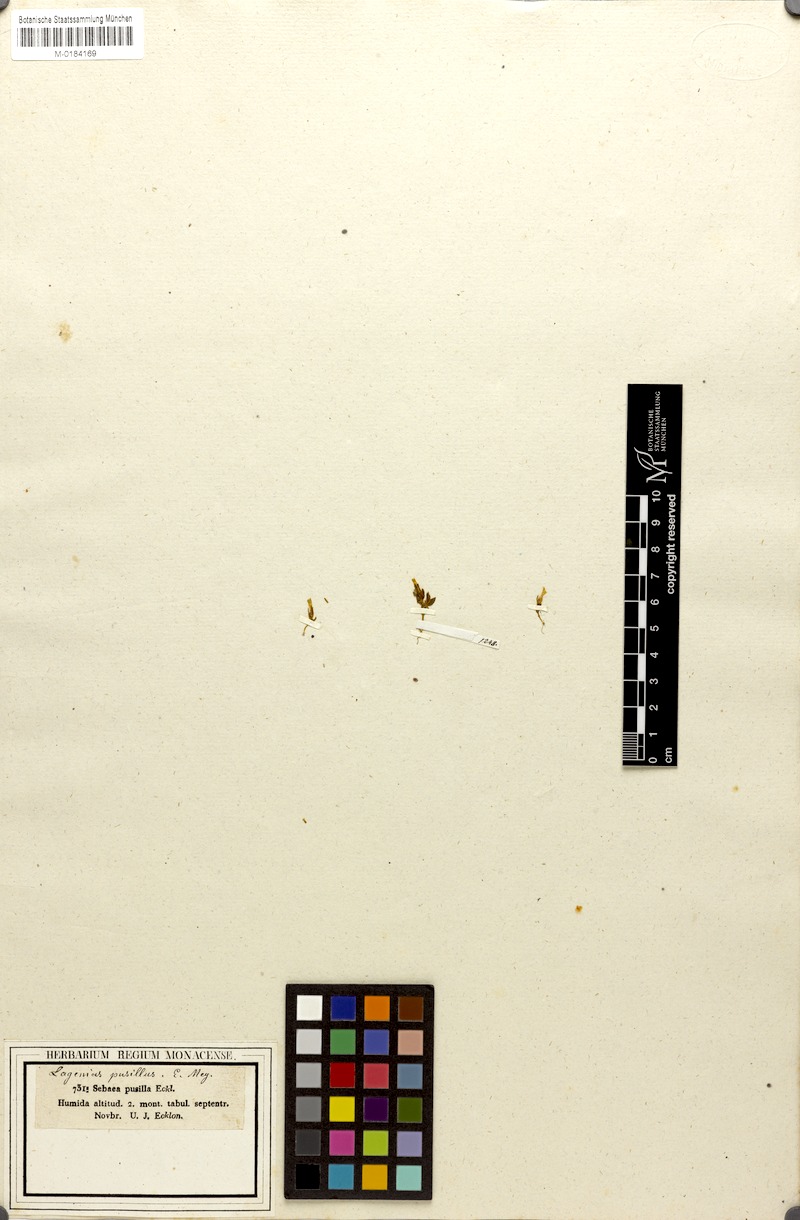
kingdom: Plantae
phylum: Tracheophyta
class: Magnoliopsida
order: Gentianales
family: Gentianaceae
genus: Sebaea
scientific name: Sebaea pusilla
